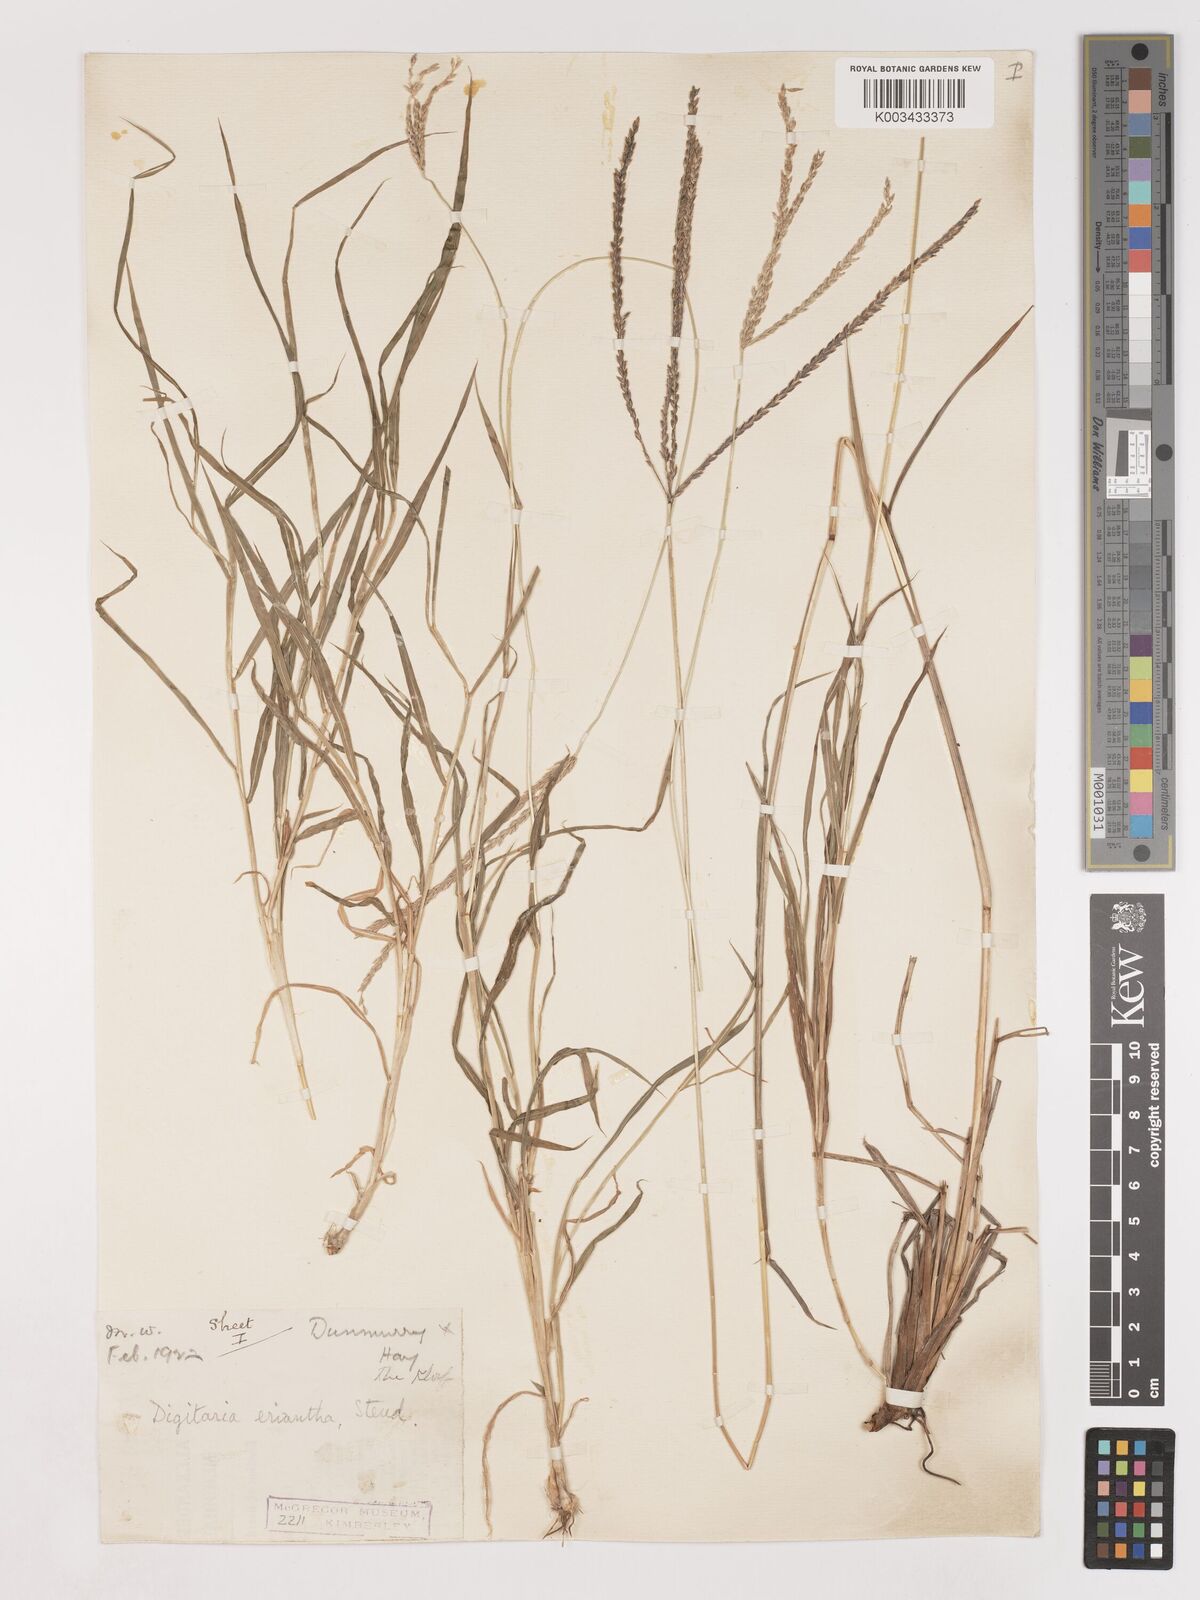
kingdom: Plantae
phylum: Tracheophyta
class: Liliopsida
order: Poales
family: Poaceae
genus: Digitaria
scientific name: Digitaria eriantha
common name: Digitgrass
